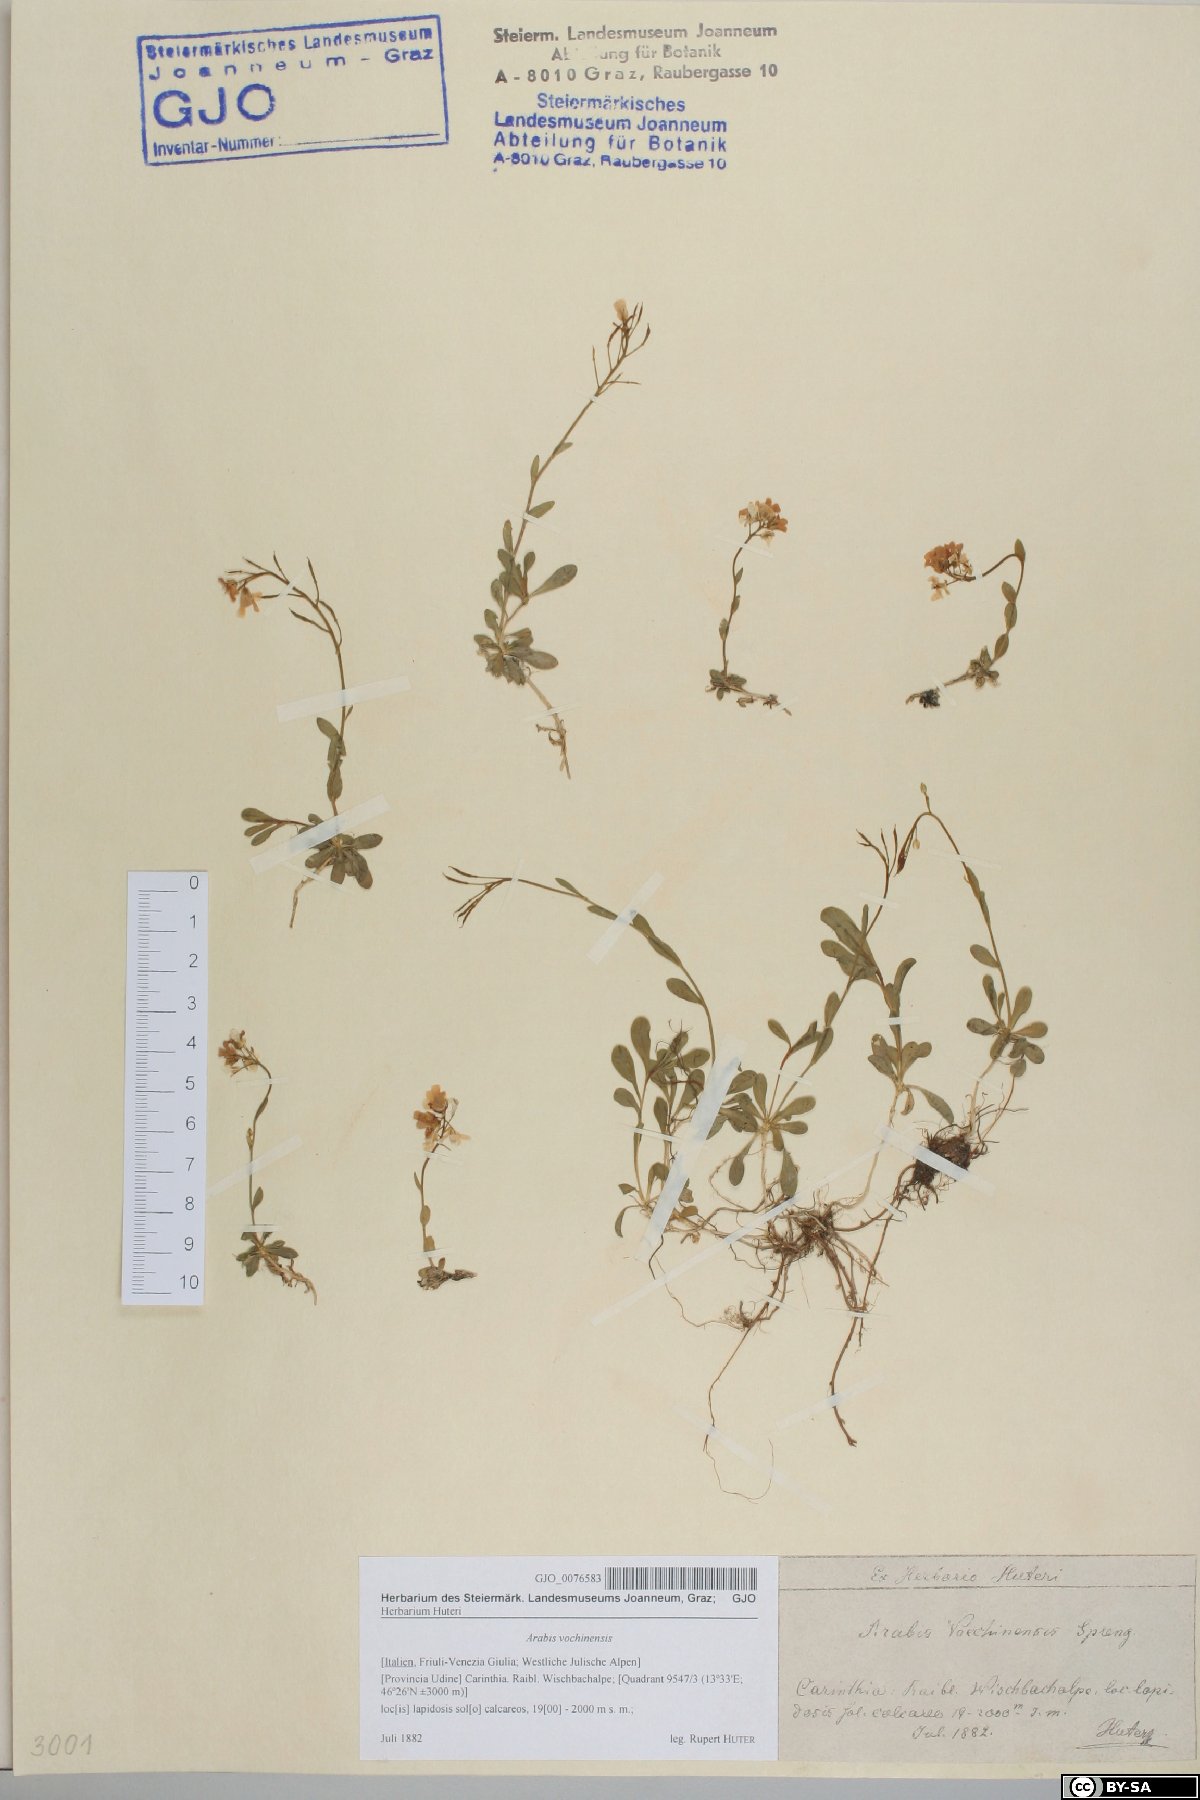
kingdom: Plantae
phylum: Tracheophyta
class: Magnoliopsida
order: Brassicales
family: Brassicaceae
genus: Arabis
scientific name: Arabis vochinensis
